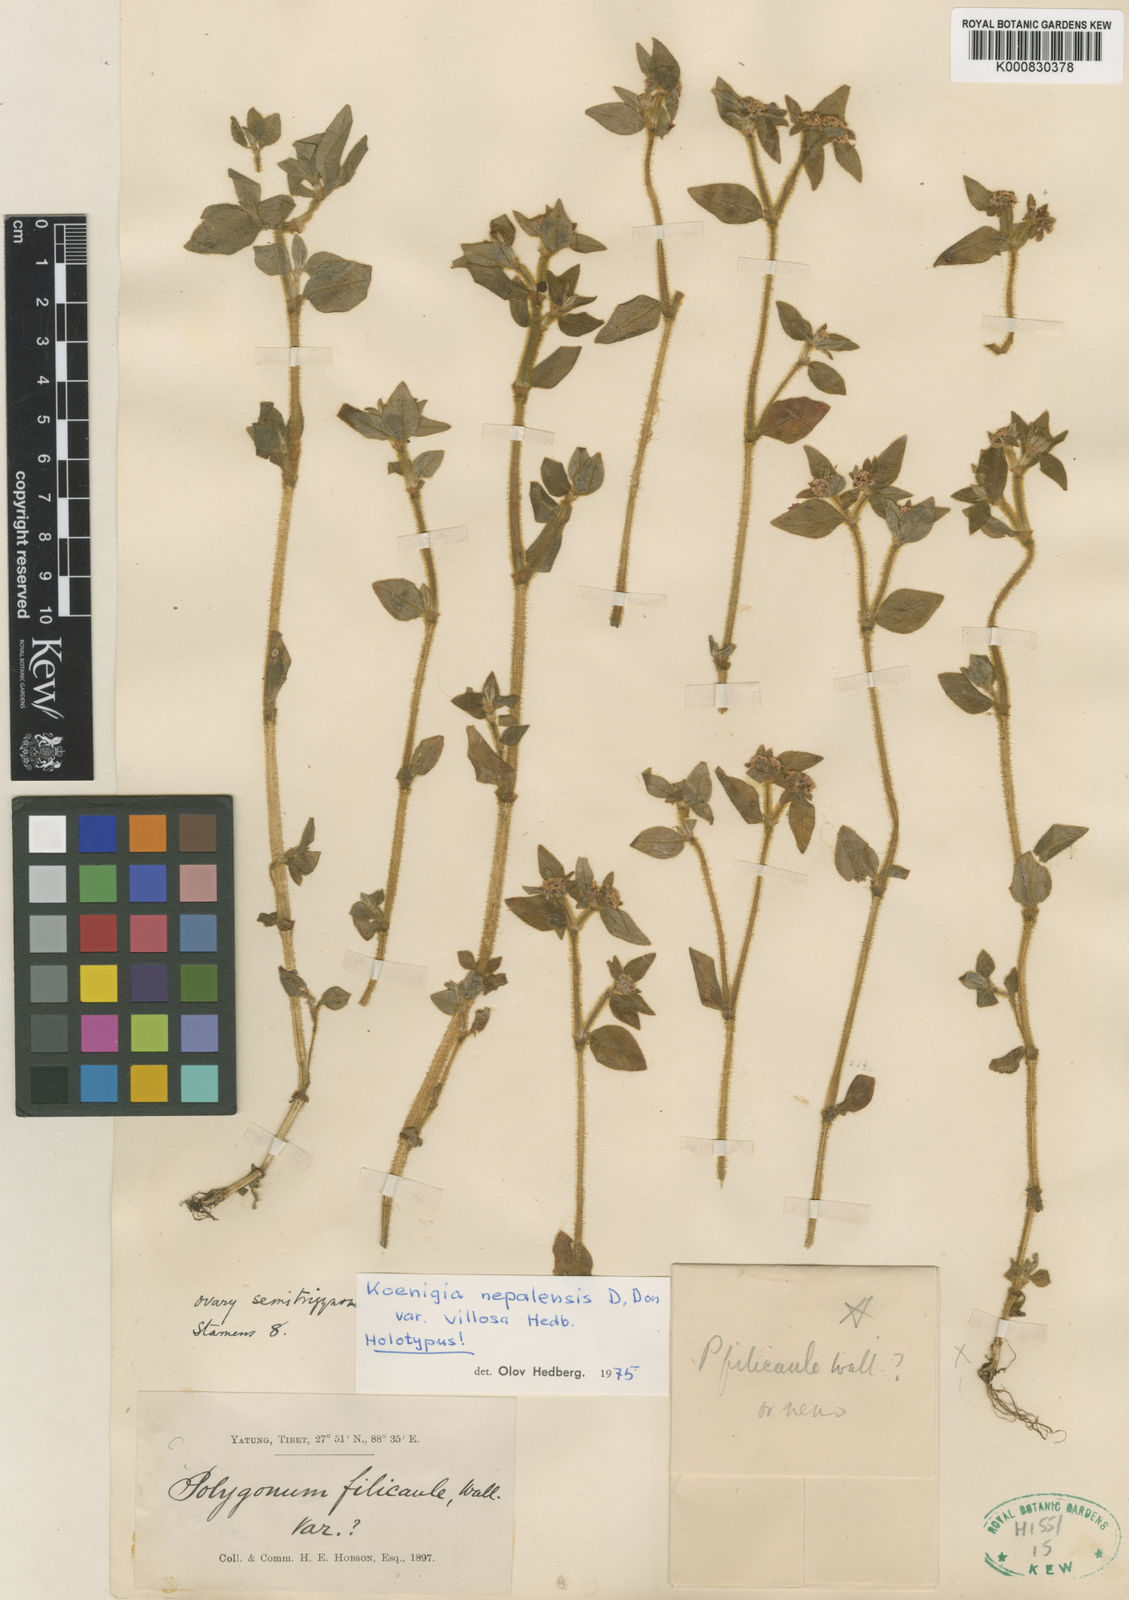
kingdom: Plantae
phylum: Tracheophyta
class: Magnoliopsida
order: Caryophyllales
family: Polygonaceae
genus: Koenigia
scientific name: Koenigia nepalensis
